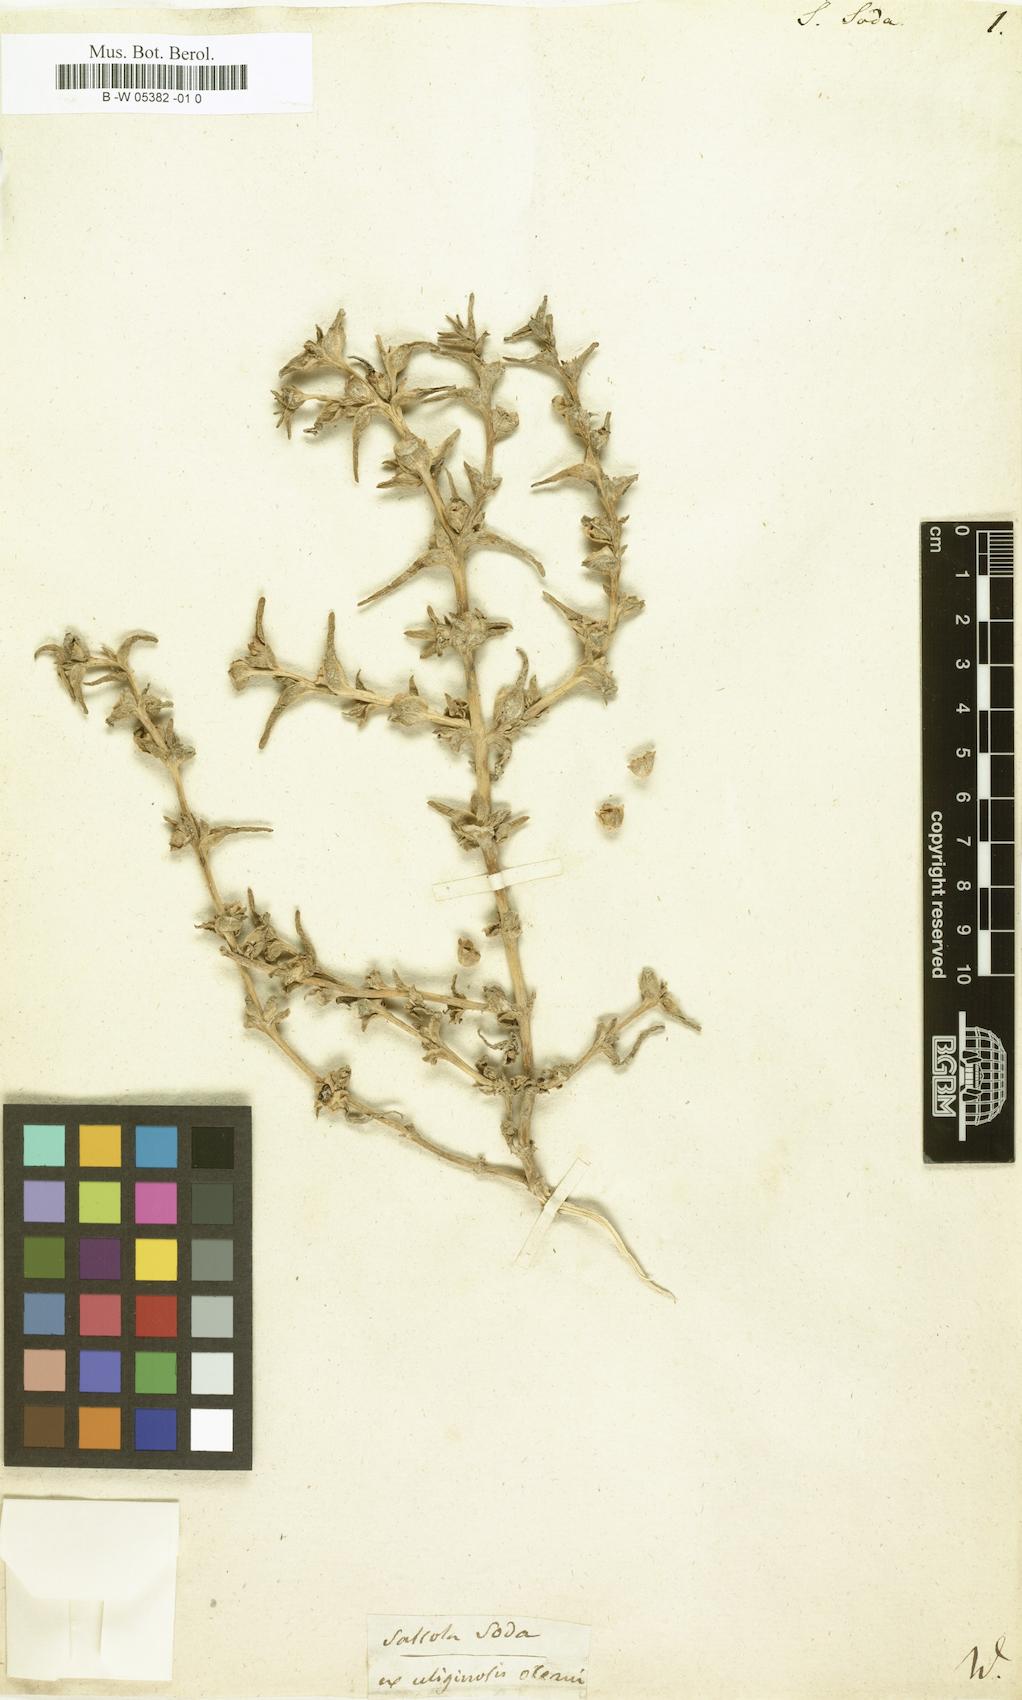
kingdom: Plantae
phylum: Tracheophyta
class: Magnoliopsida
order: Caryophyllales
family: Amaranthaceae
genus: Soda
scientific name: Soda inermis
